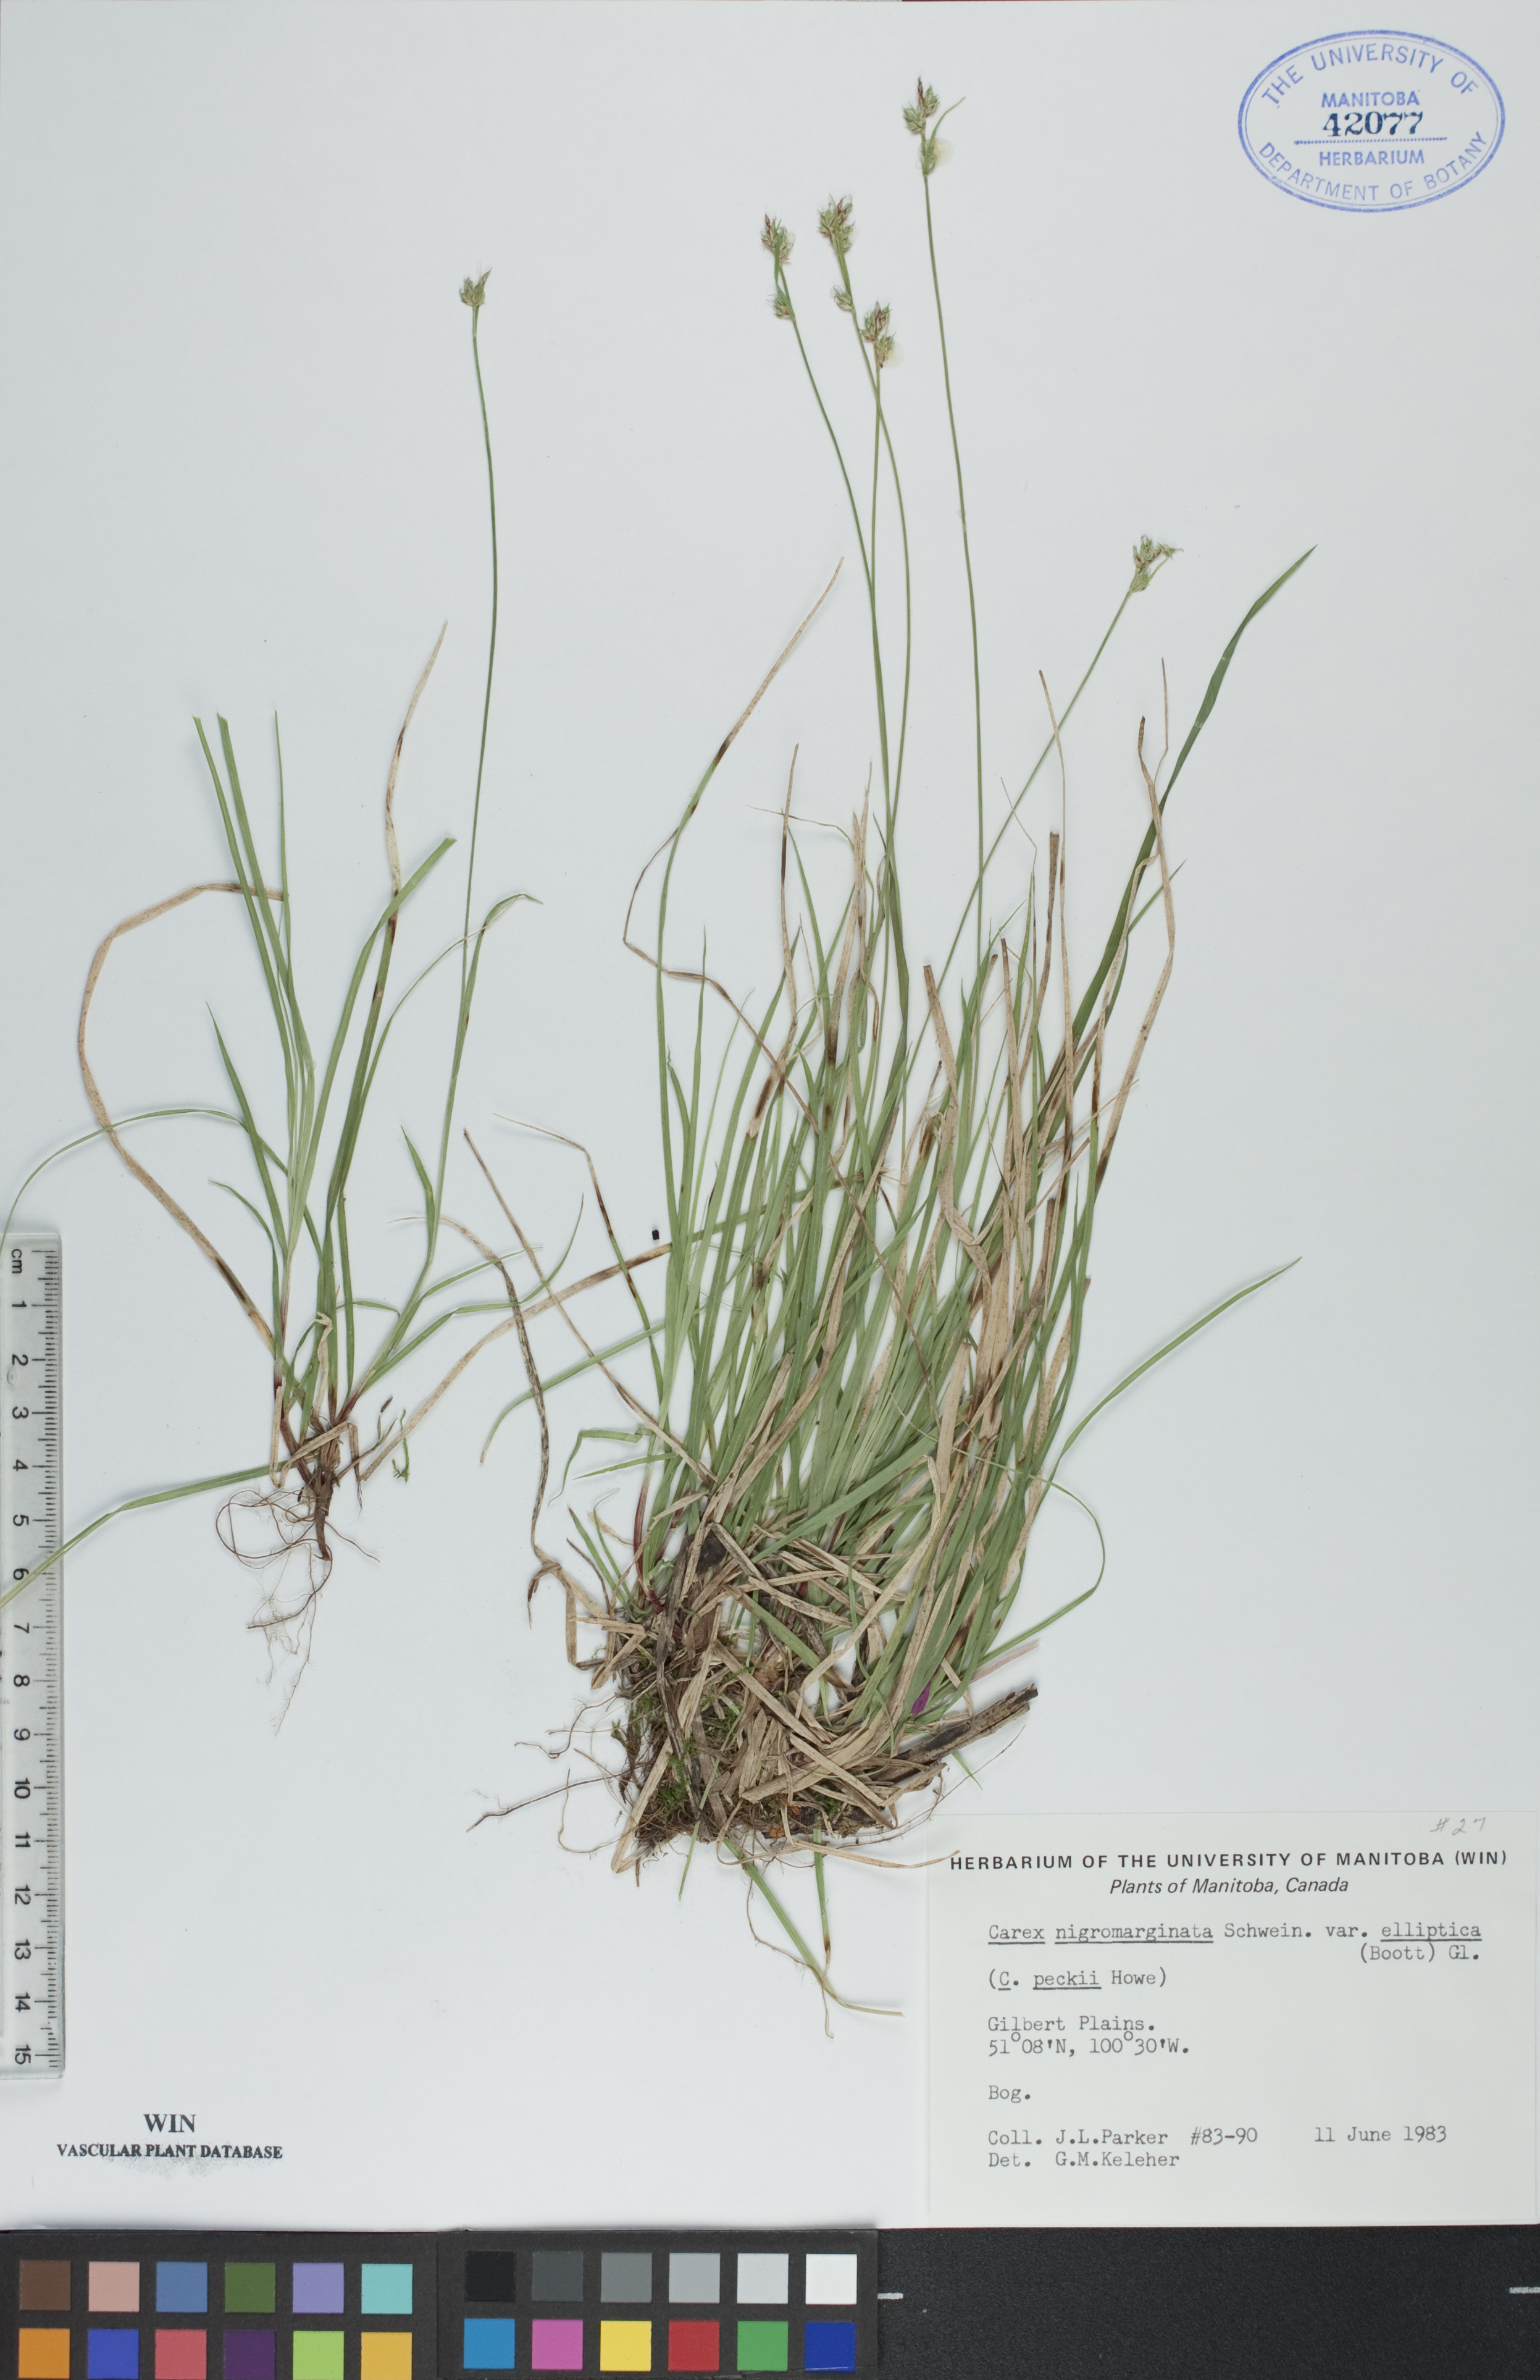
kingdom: Plantae
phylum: Tracheophyta
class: Liliopsida
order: Poales
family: Cyperaceae
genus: Carex
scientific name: Carex peckii
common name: Peck's oak sedge
